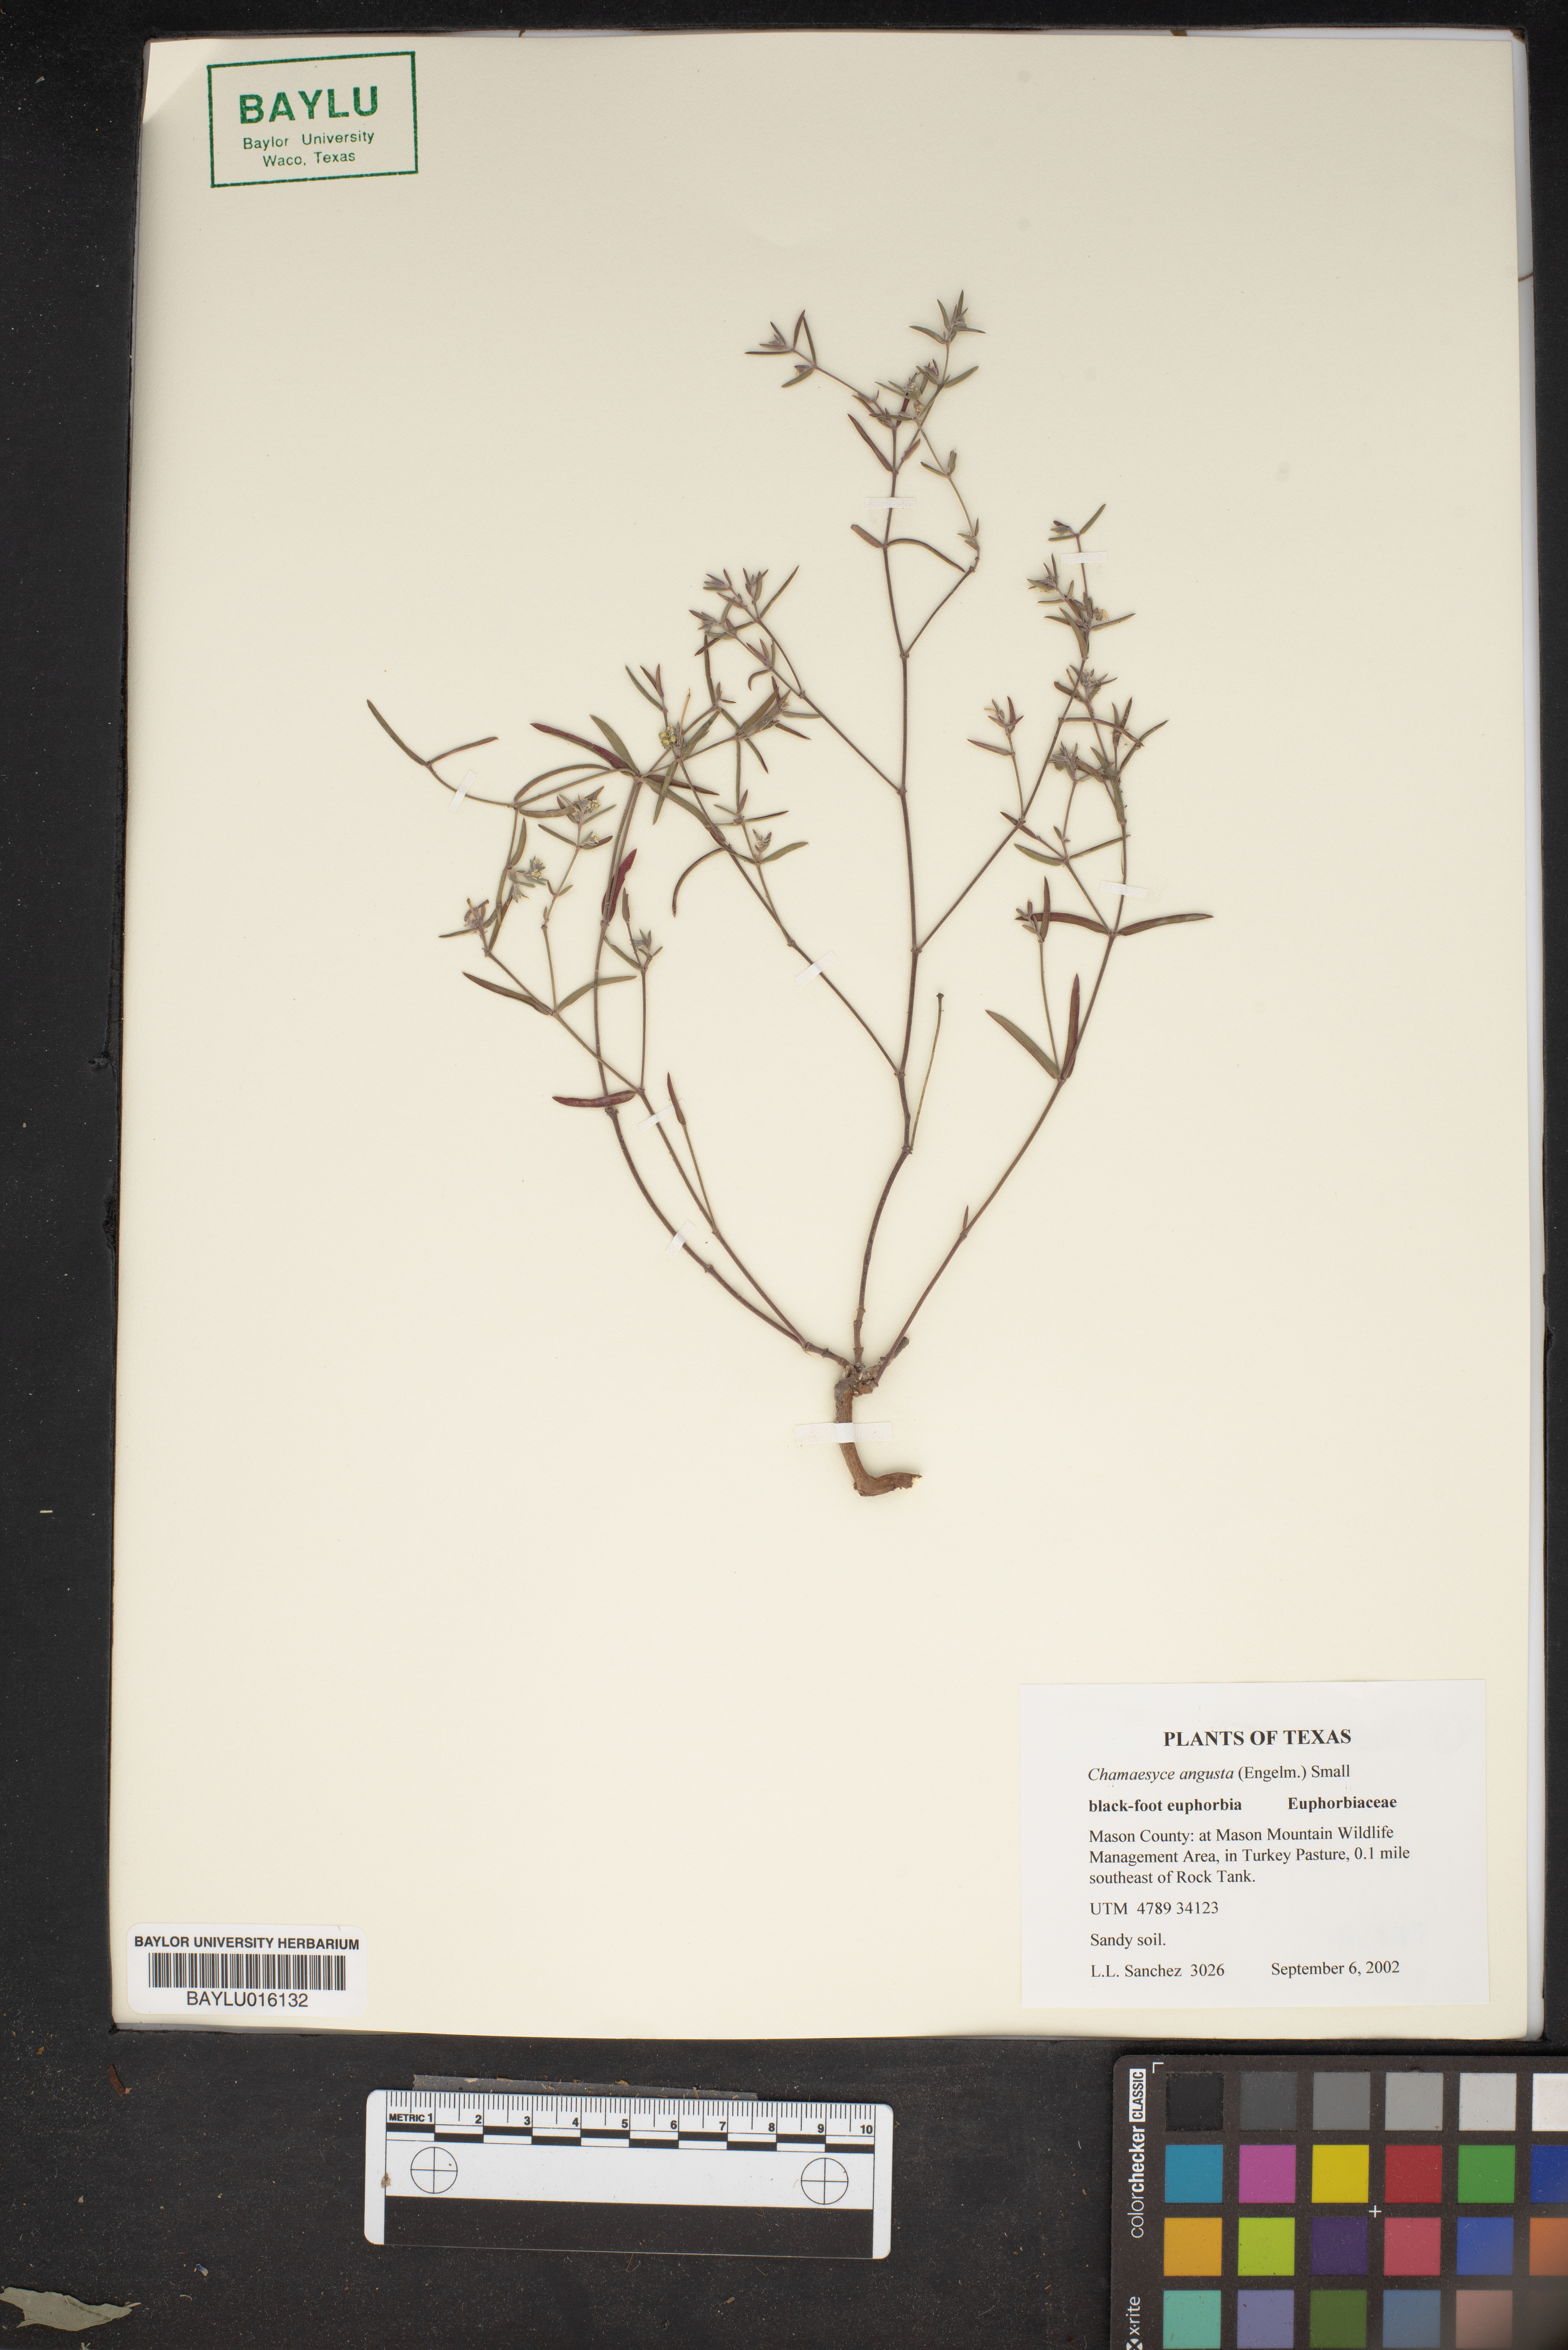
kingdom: Plantae
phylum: Tracheophyta
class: Magnoliopsida
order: Malpighiales
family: Euphorbiaceae
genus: Euphorbia
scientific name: Euphorbia angusta
